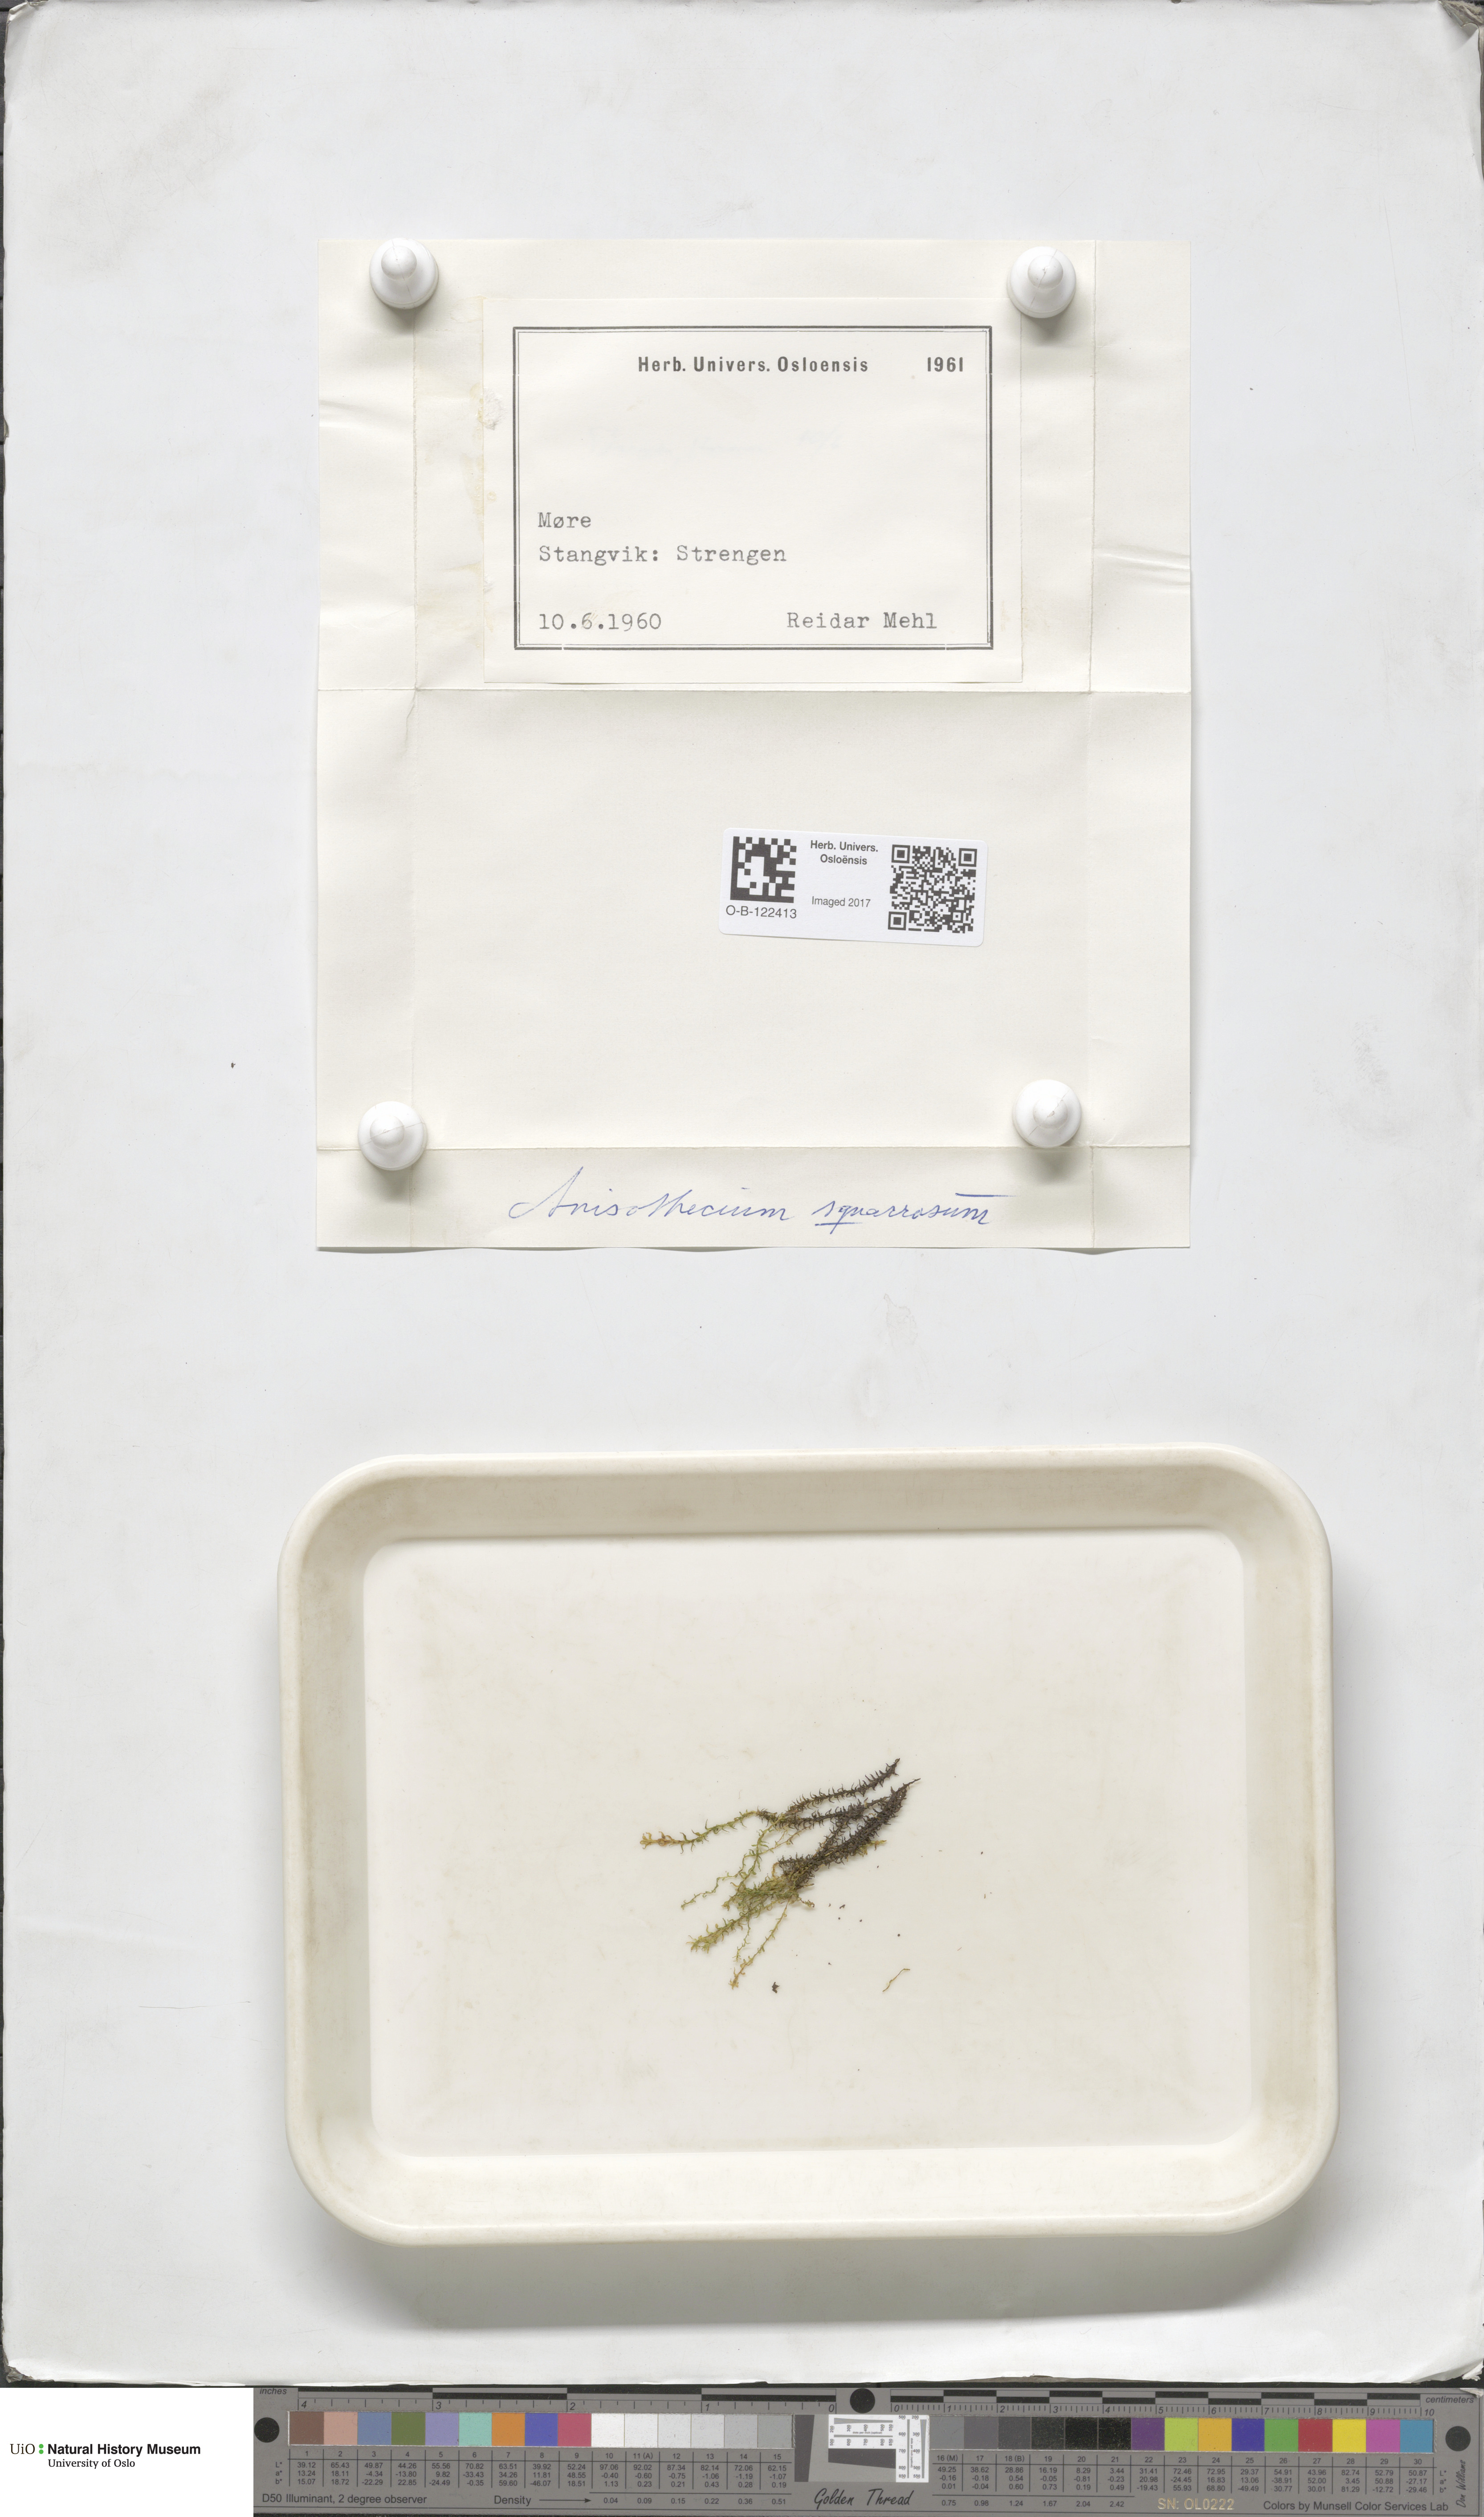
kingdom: Plantae
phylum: Bryophyta
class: Bryopsida
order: Dicranales
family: Aongstroemiaceae
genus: Diobelonella
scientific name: Diobelonella palustris
